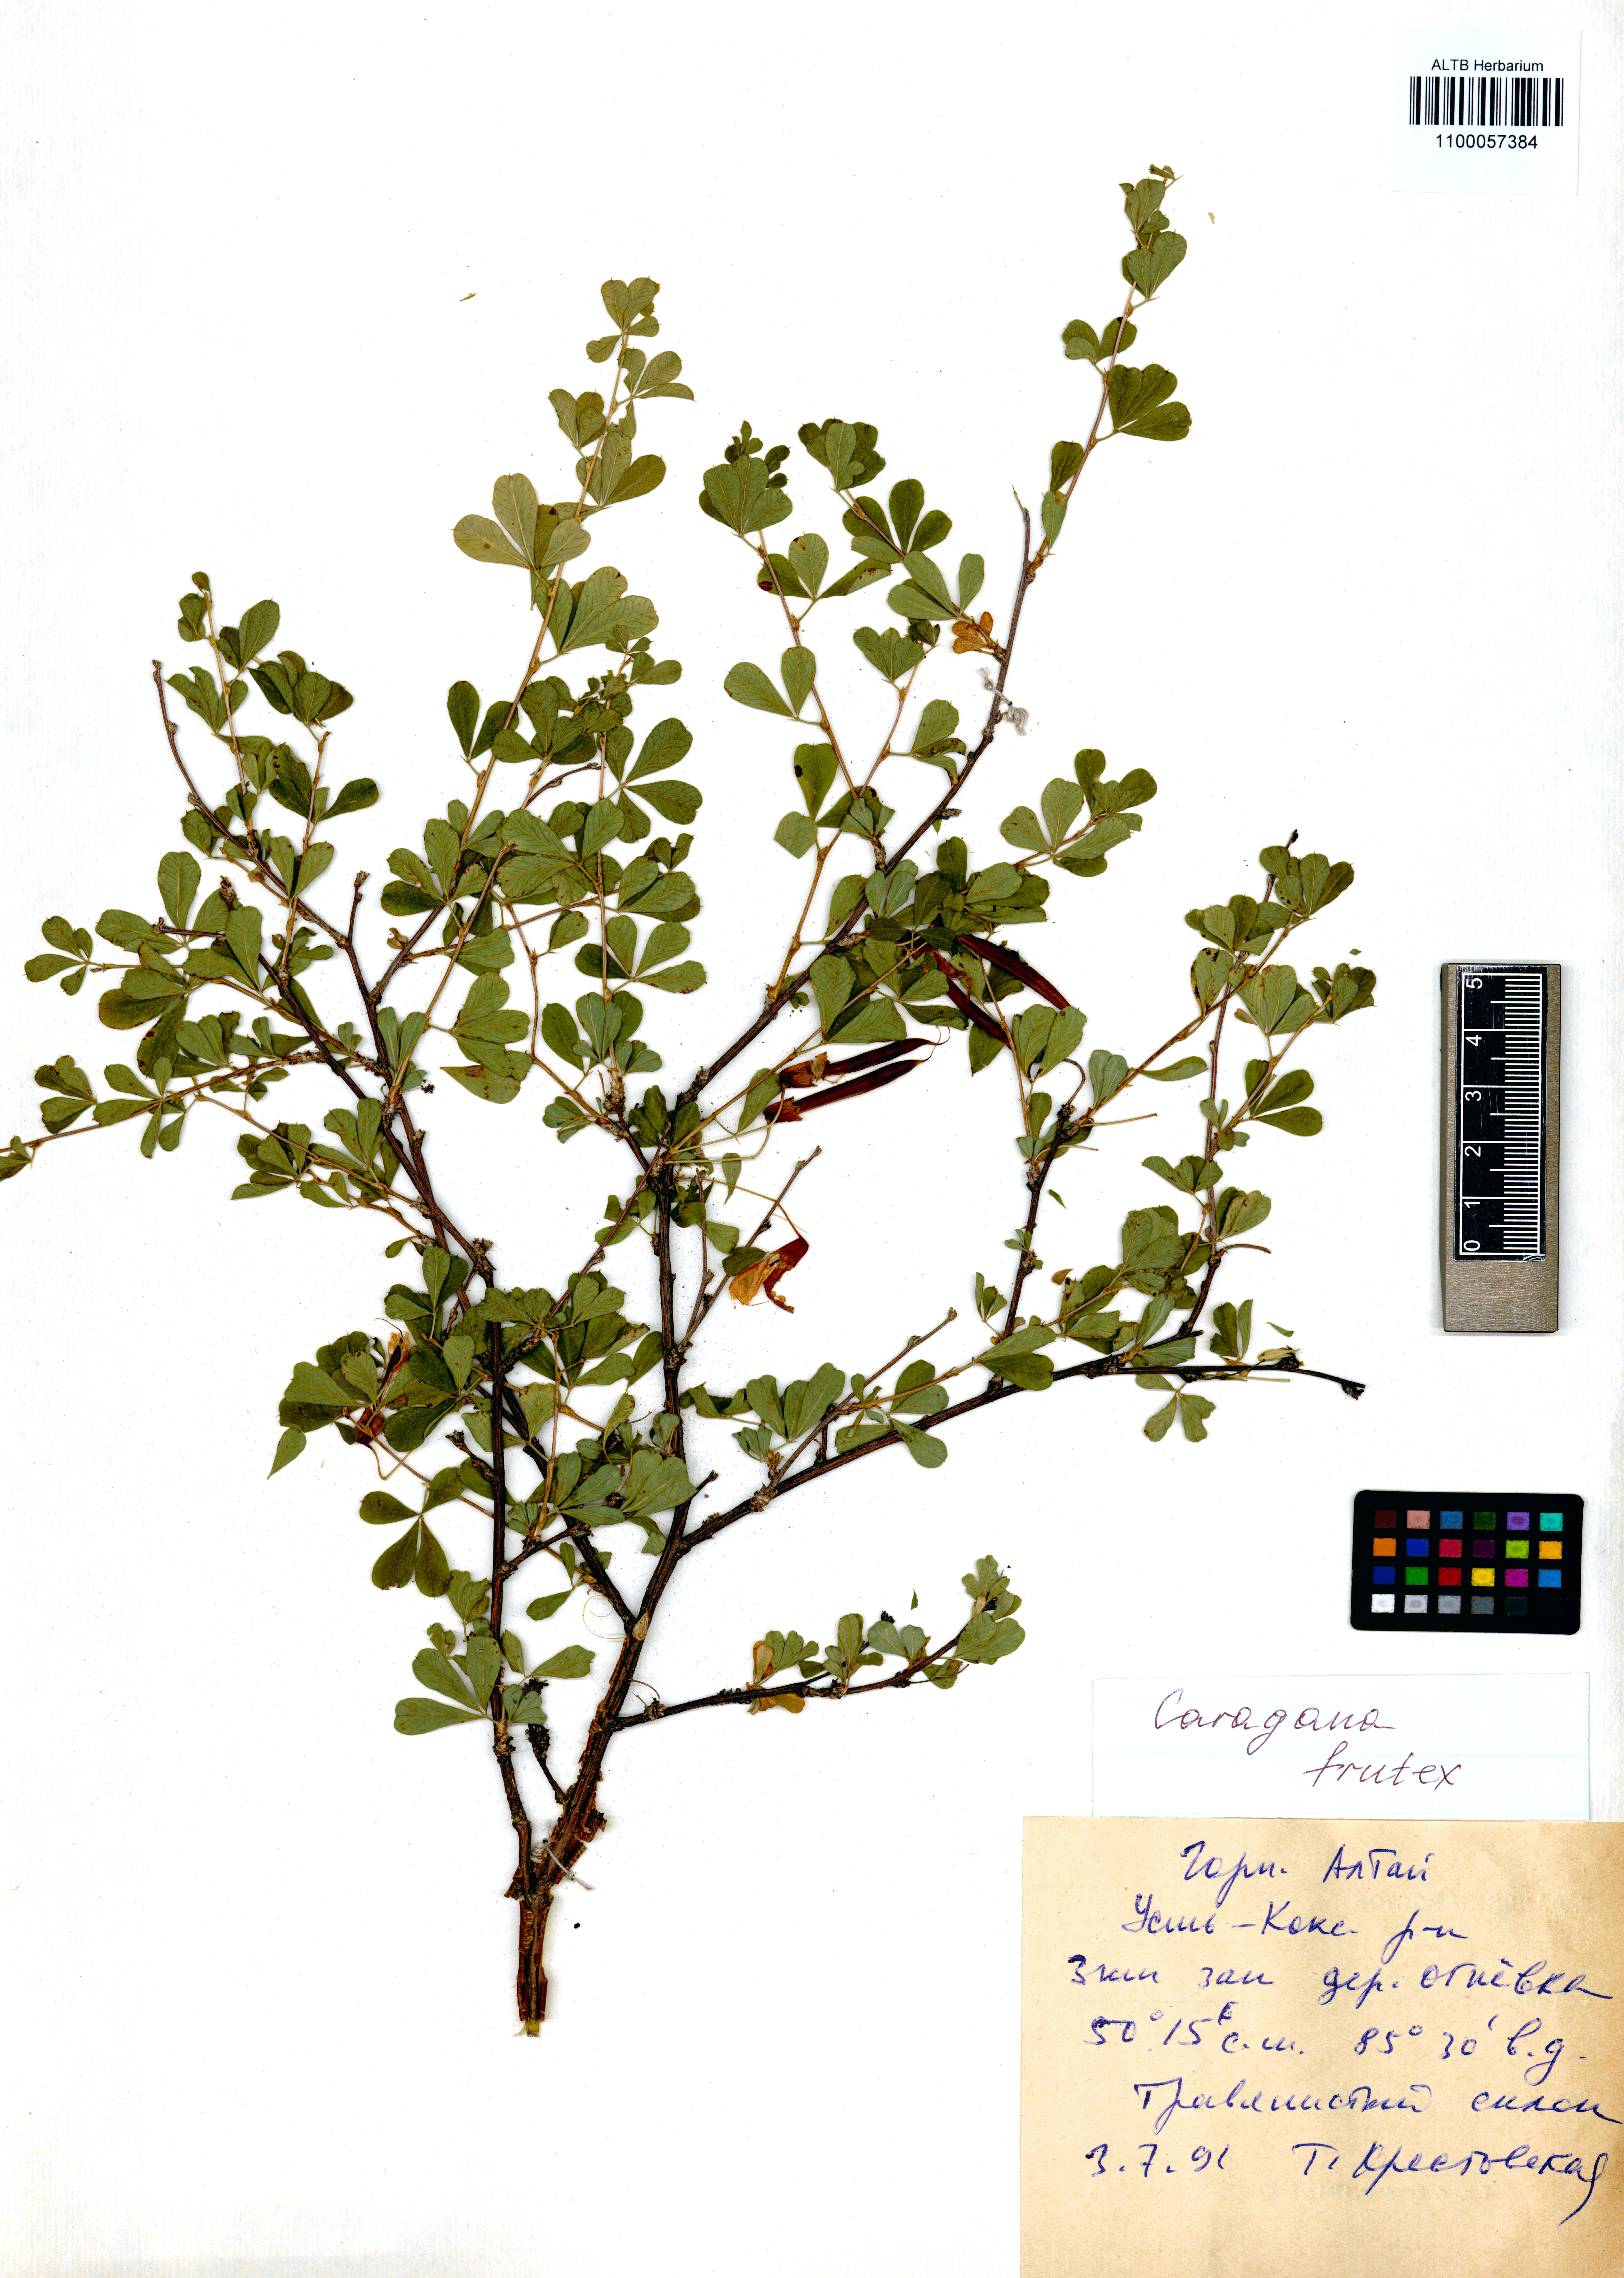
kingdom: Plantae
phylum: Tracheophyta
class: Magnoliopsida
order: Fabales
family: Fabaceae
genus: Caragana
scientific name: Caragana frutex
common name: Russian peashrub
